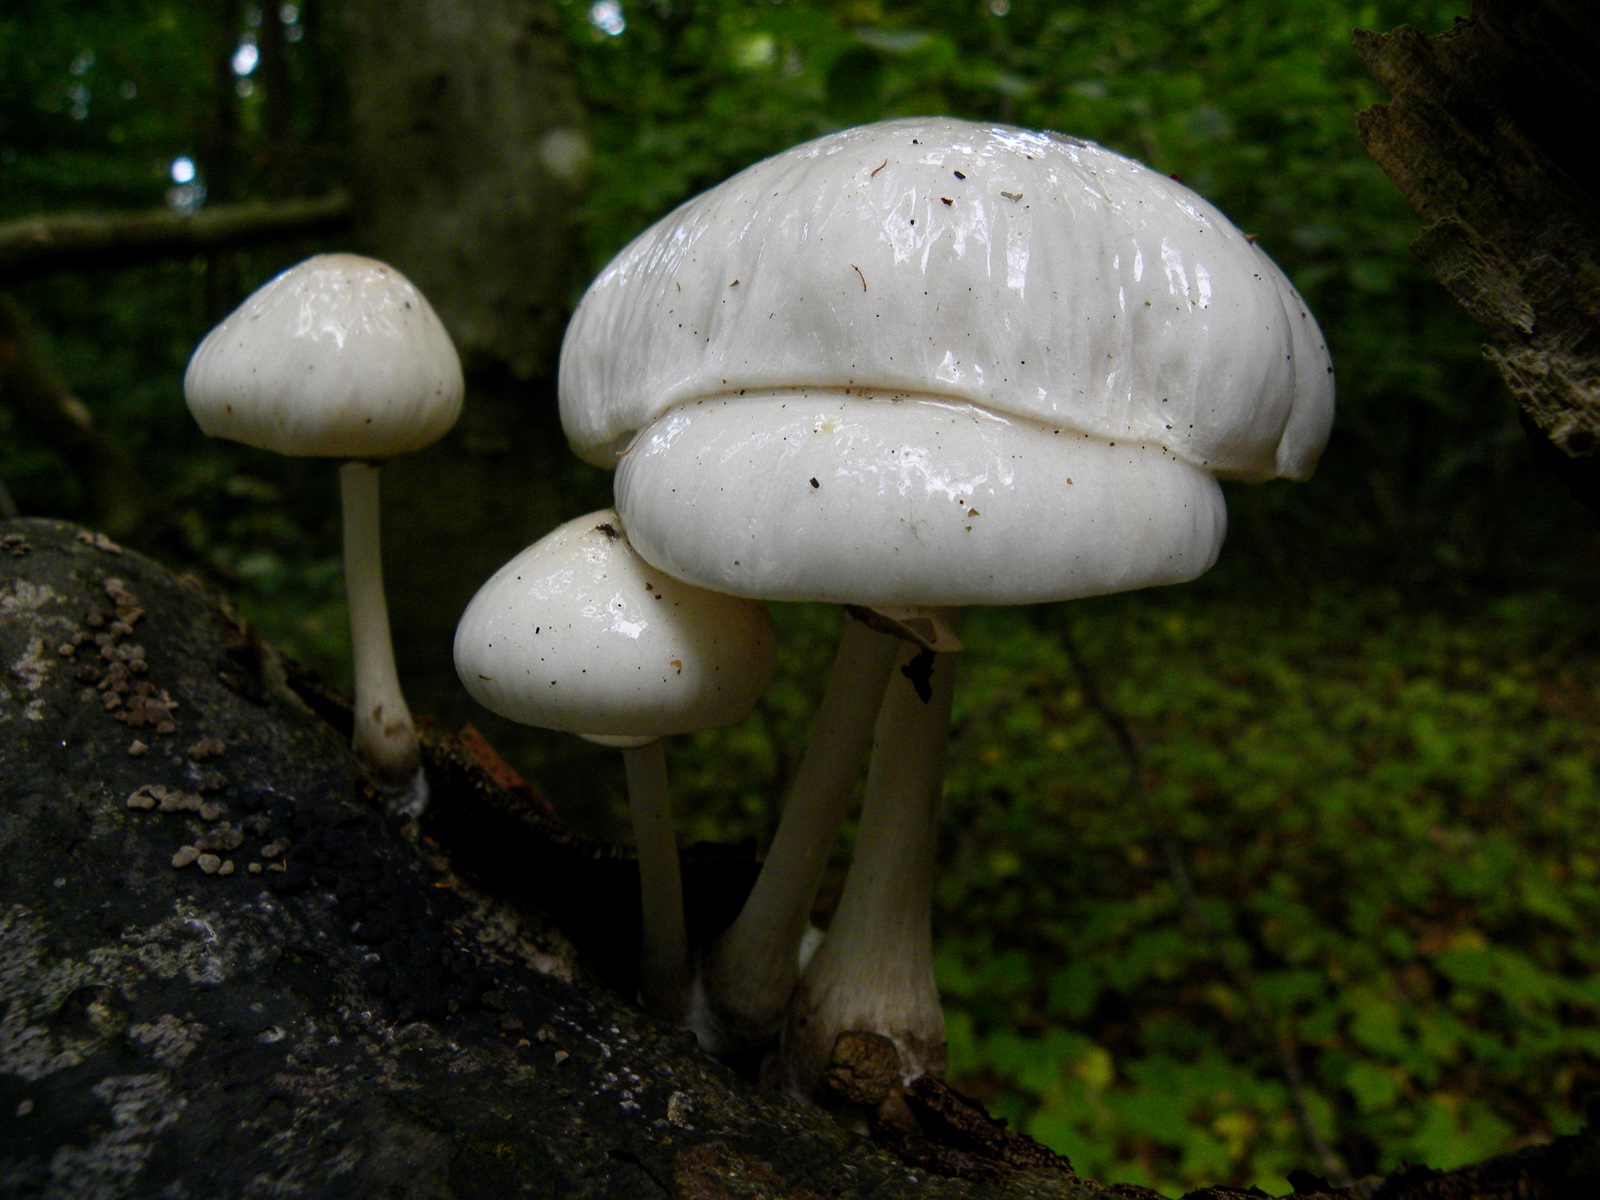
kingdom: Fungi
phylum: Basidiomycota
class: Agaricomycetes
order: Agaricales
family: Physalacriaceae
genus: Mucidula
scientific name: Mucidula mucida
